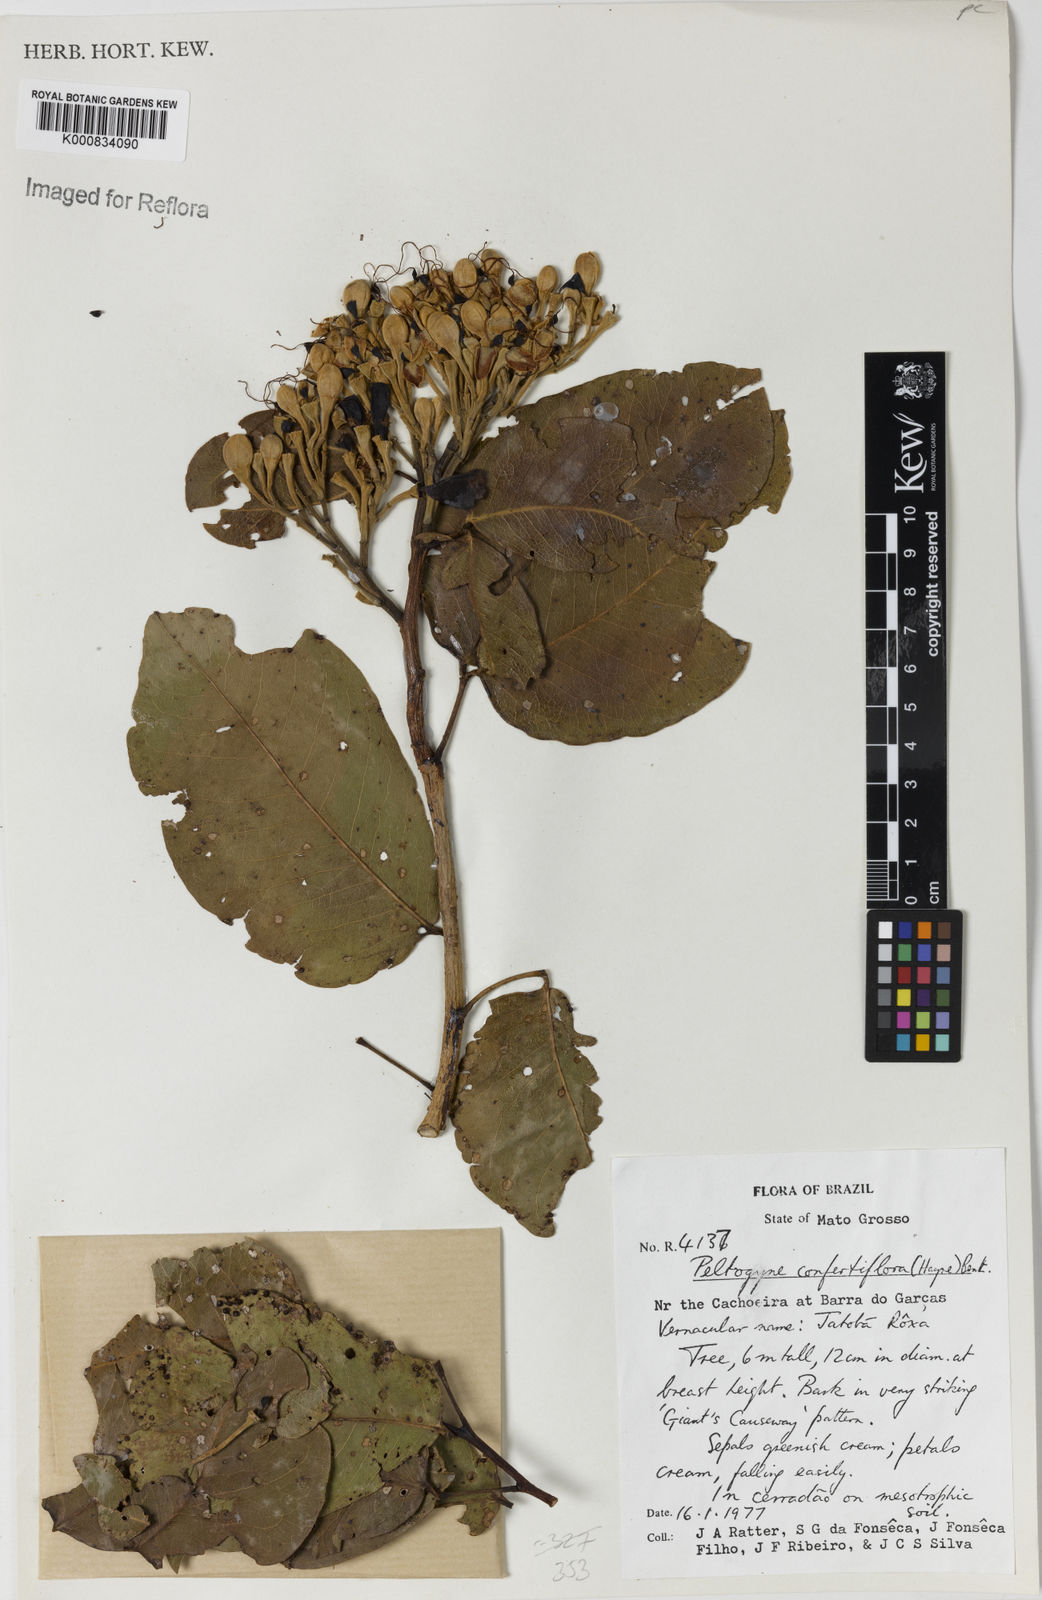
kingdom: Plantae
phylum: Tracheophyta
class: Magnoliopsida
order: Fabales
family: Fabaceae
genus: Peltogyne
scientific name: Peltogyne confertiflora
